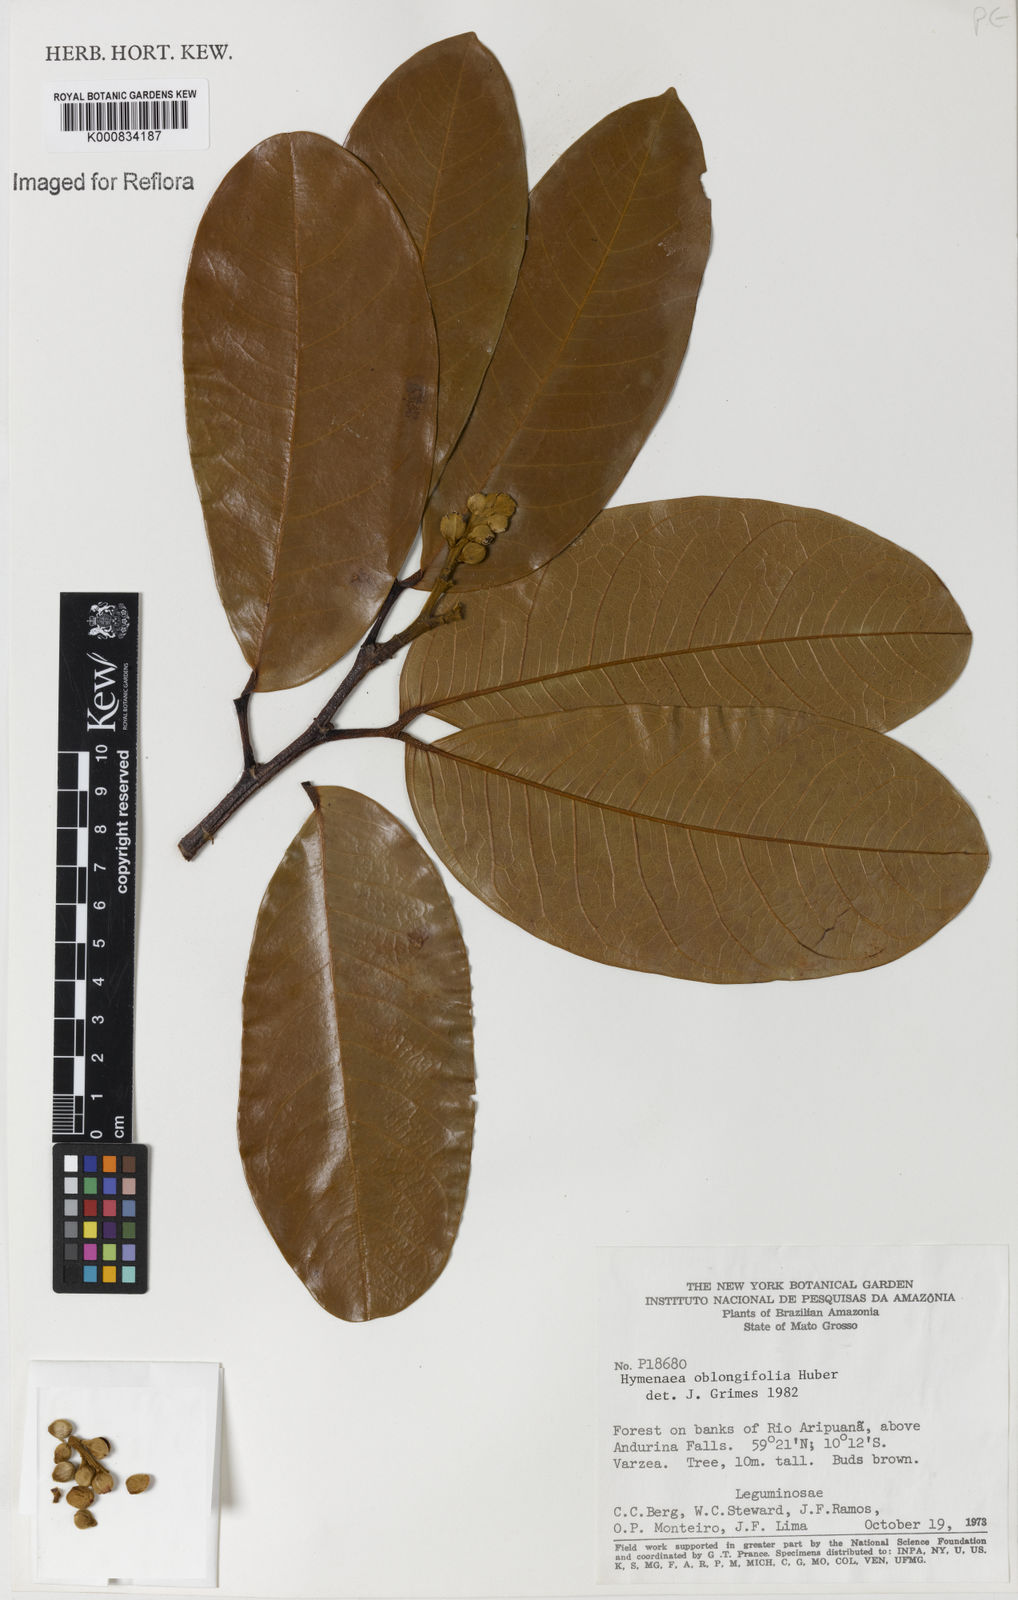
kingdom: Plantae
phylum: Tracheophyta
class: Magnoliopsida
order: Fabales
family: Fabaceae
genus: Hymenaea
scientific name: Hymenaea oblongifolia
